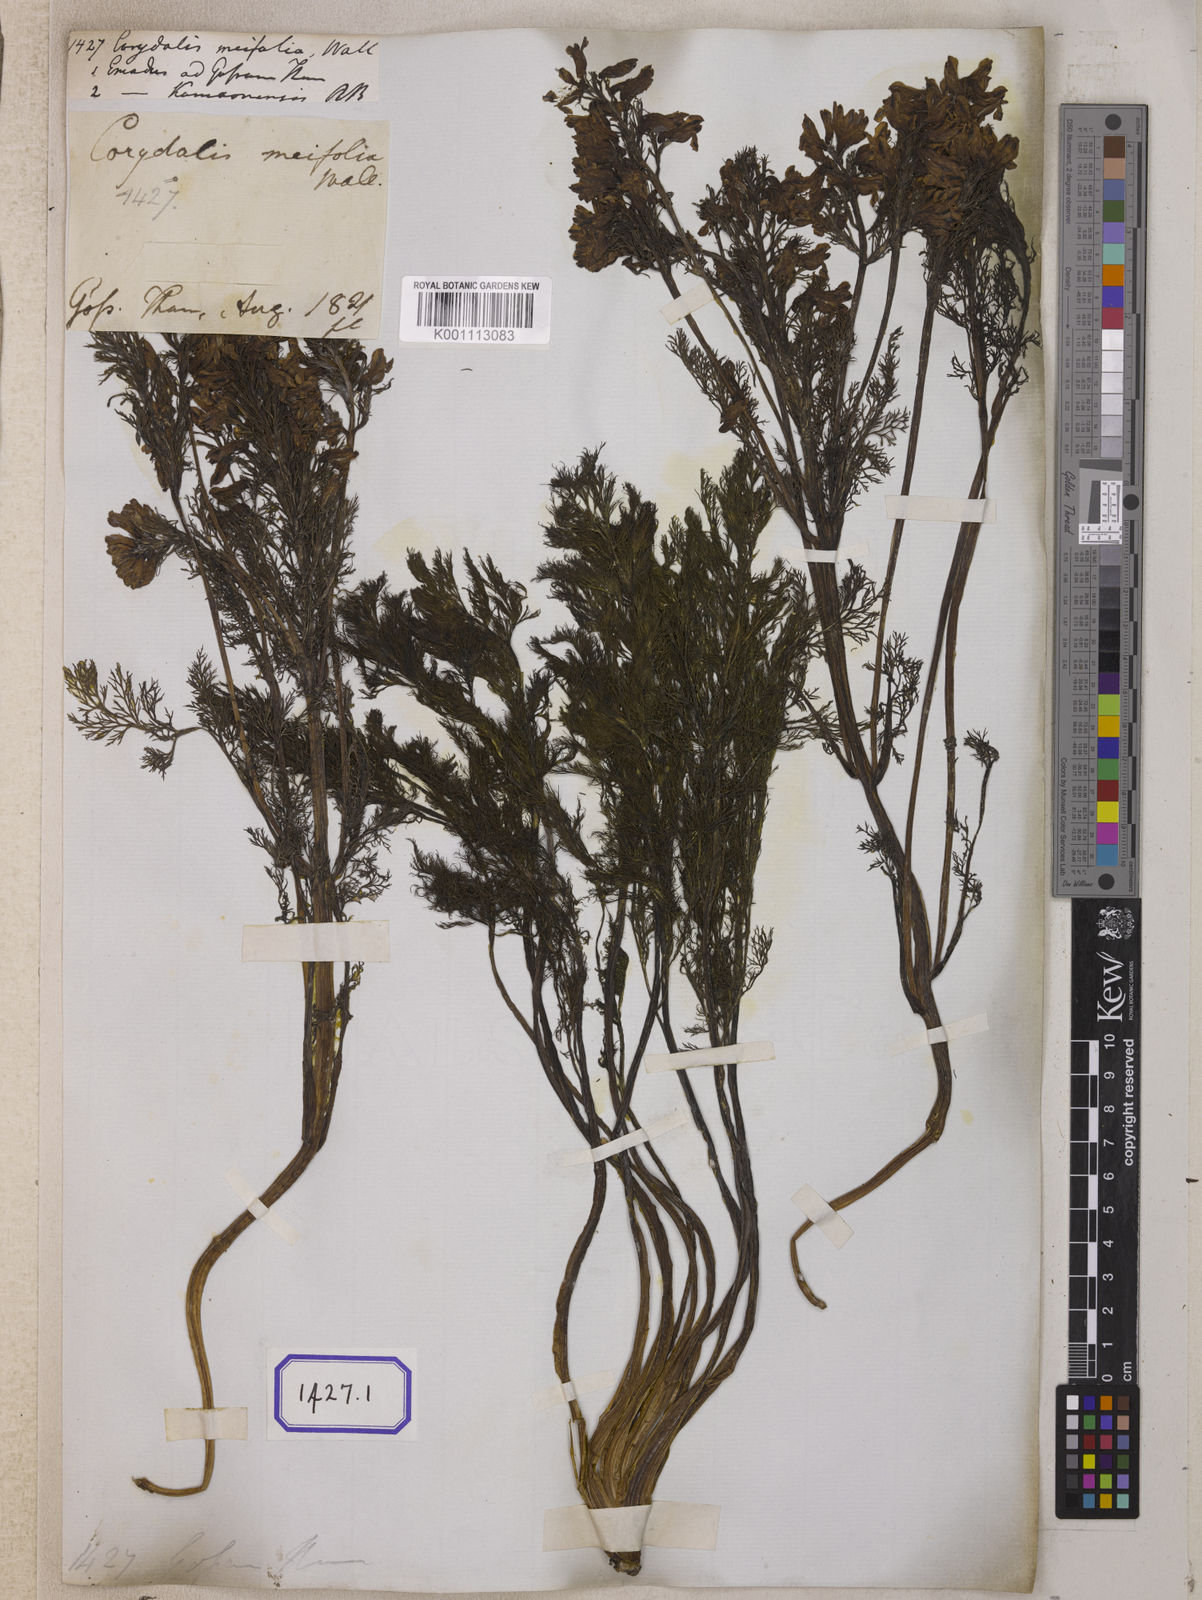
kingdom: Plantae
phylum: Tracheophyta
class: Magnoliopsida
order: Ranunculales
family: Papaveraceae
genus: Corydalis
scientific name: Corydalis meifolia
